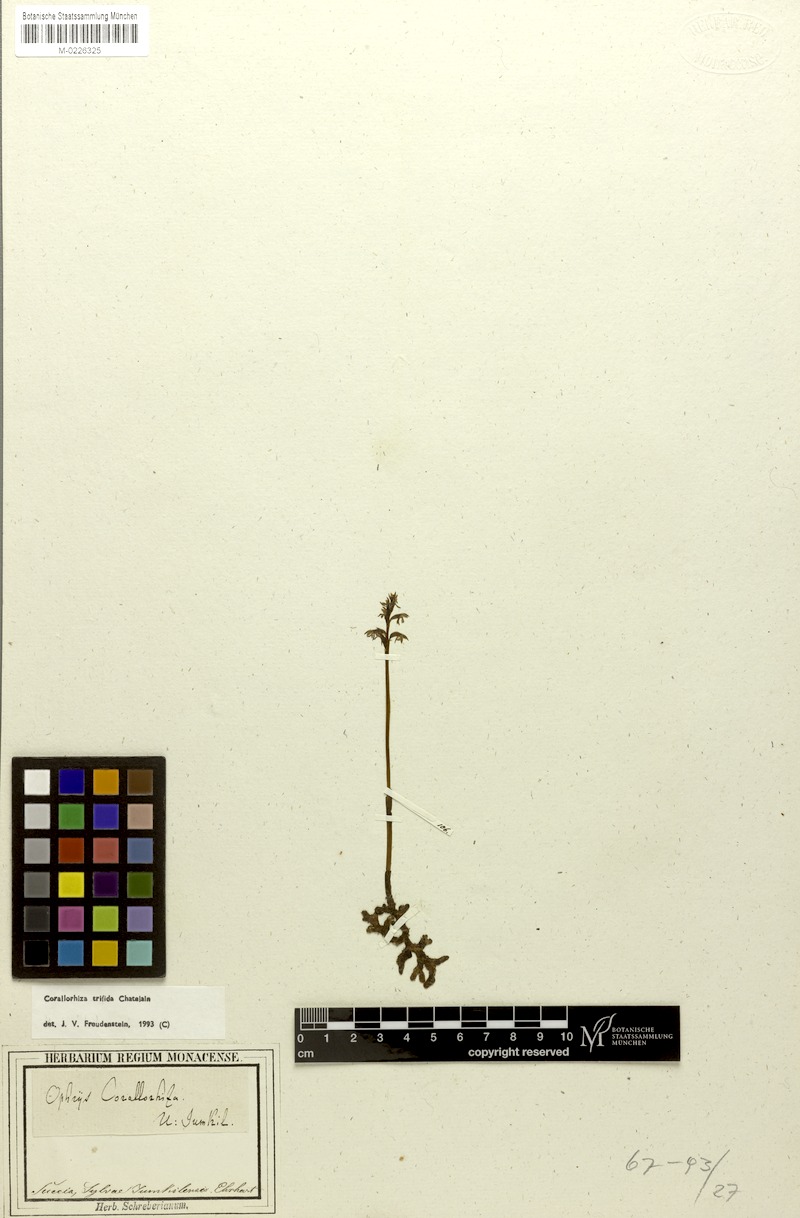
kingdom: Plantae
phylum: Tracheophyta
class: Liliopsida
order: Asparagales
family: Orchidaceae
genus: Corallorhiza
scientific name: Corallorhiza trifida
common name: Yellow coralroot
